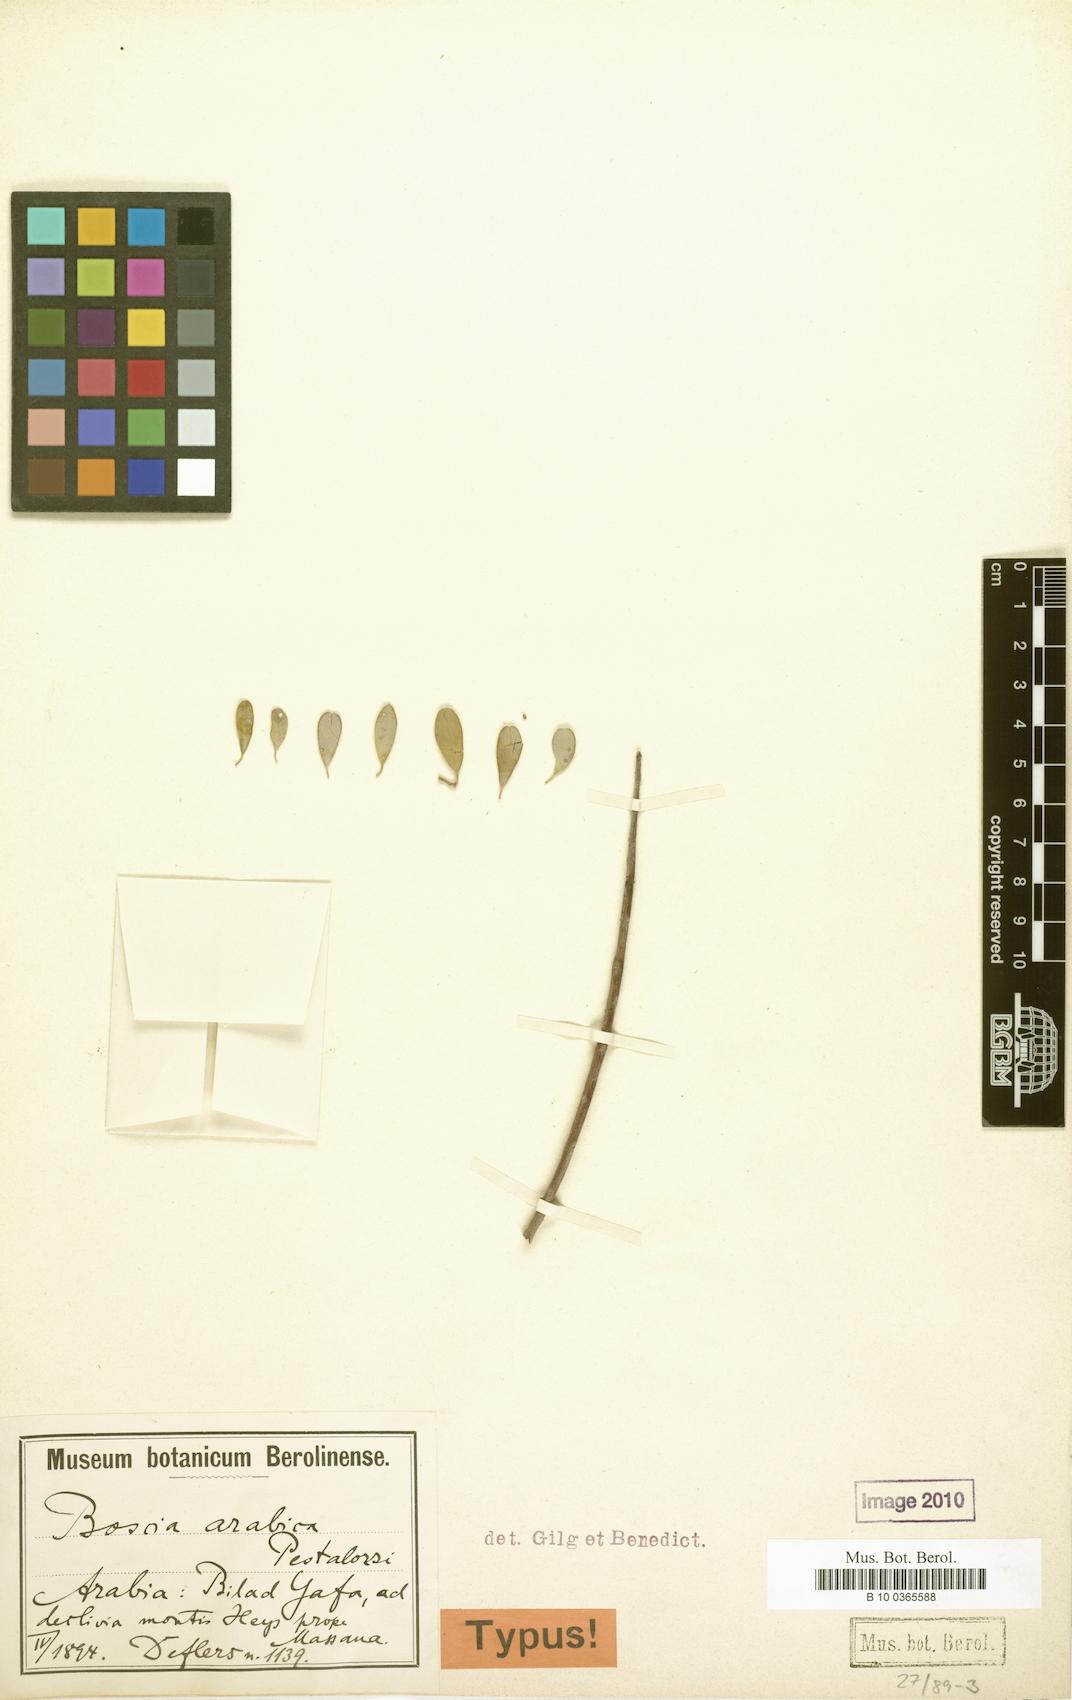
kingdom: Plantae
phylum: Tracheophyta
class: Magnoliopsida
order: Brassicales
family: Capparaceae
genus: Boscia
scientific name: Boscia arabica
